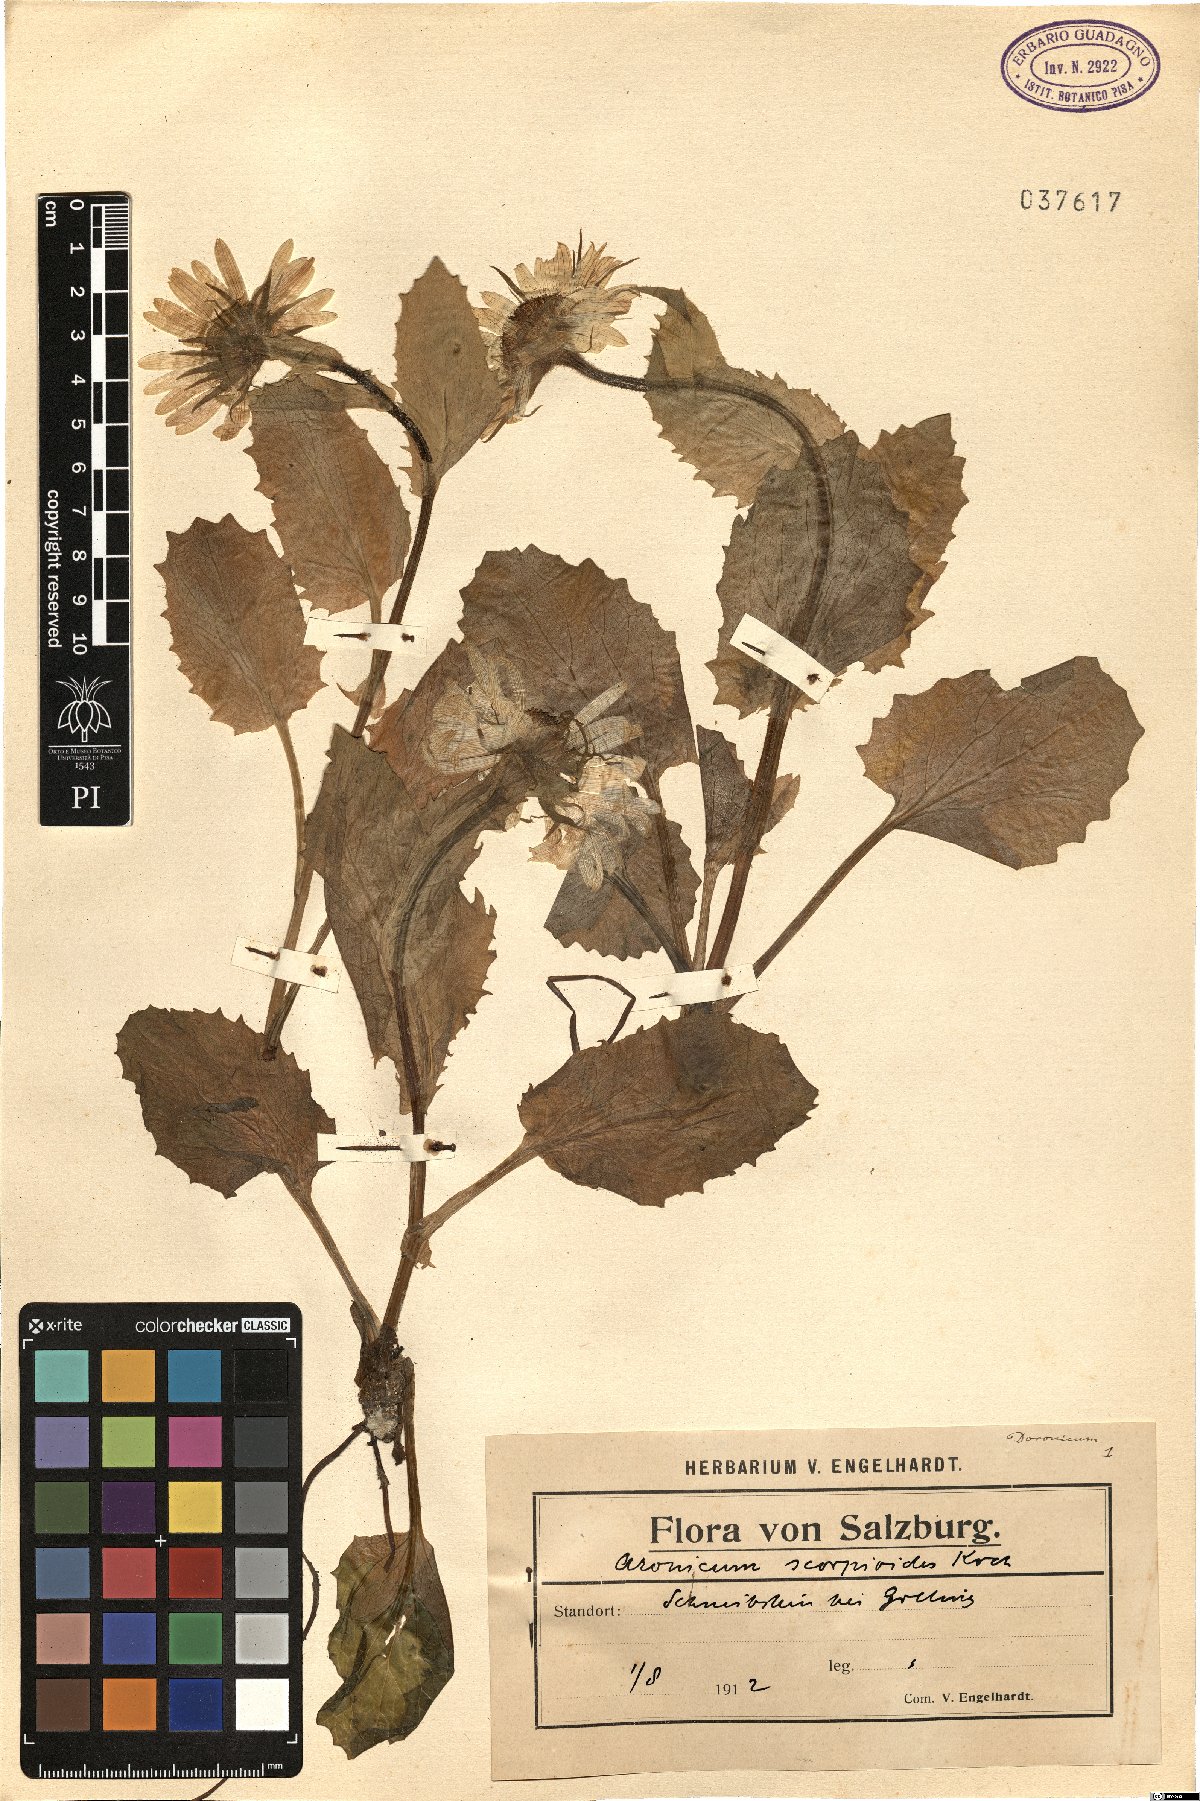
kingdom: Plantae
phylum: Tracheophyta
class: Magnoliopsida
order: Asterales
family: Asteraceae
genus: Doronicum
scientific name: Doronicum grandiflorum
